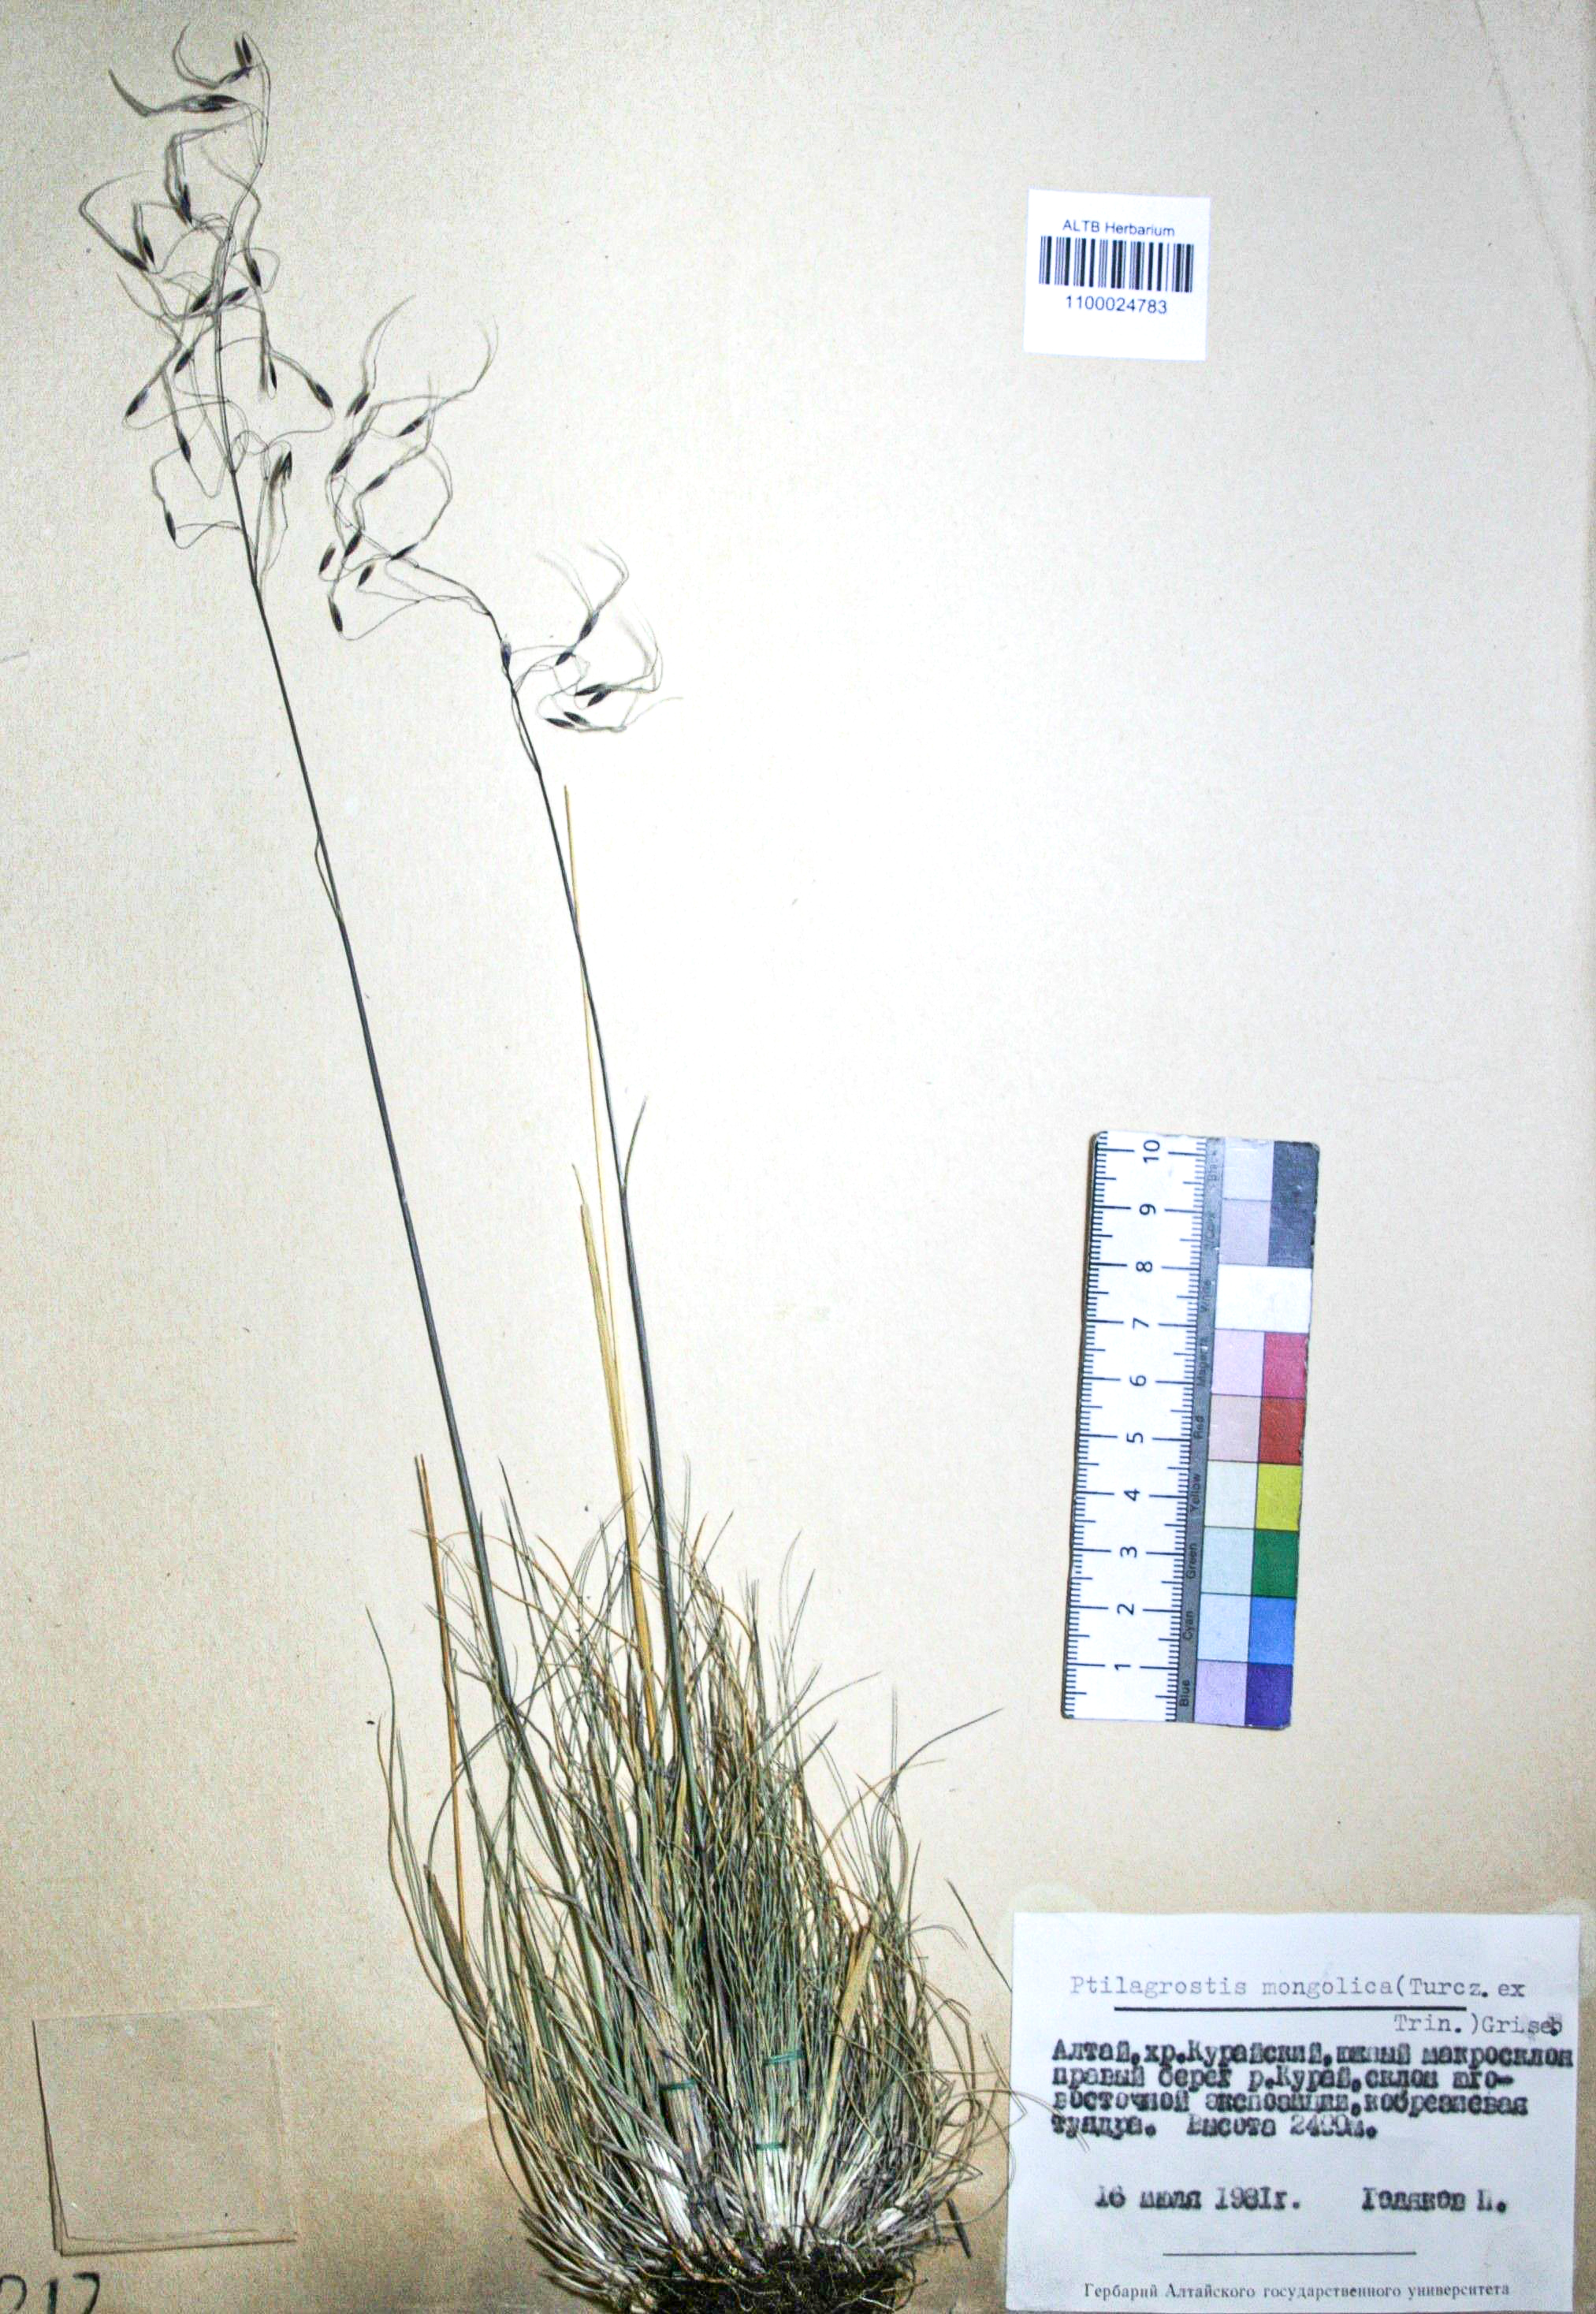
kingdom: Plantae
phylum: Tracheophyta
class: Liliopsida
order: Poales
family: Poaceae
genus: Ptilagrostis
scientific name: Ptilagrostis mongholica
